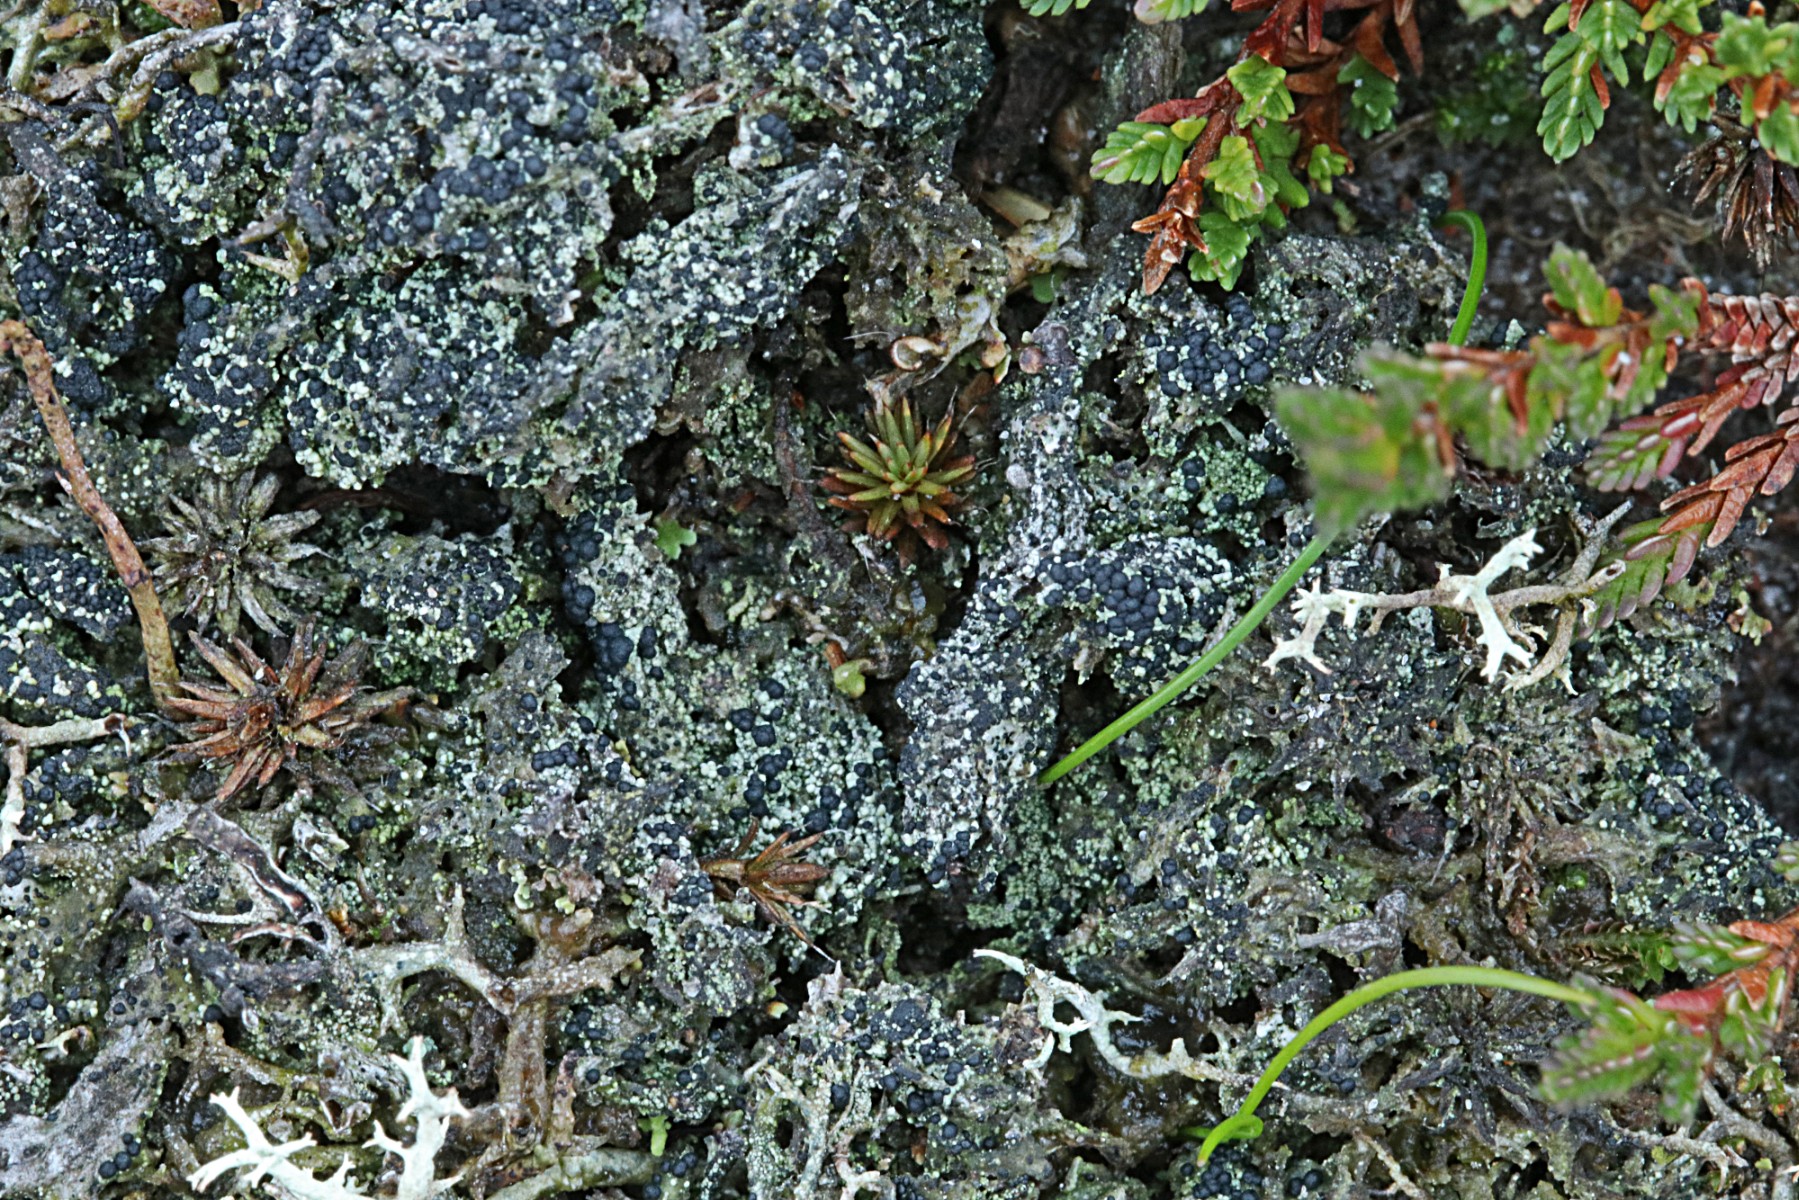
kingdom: Fungi
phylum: Ascomycota
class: Lecanoromycetes
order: Lecanorales
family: Byssolomataceae
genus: Micarea
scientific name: Micarea lignaria
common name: tørve-knaplav
